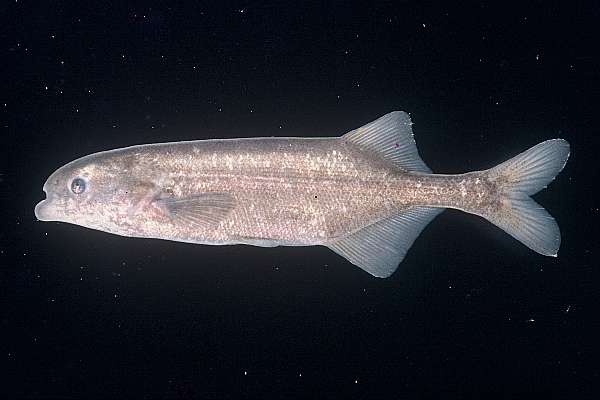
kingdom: Animalia
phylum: Chordata
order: Osteoglossiformes
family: Mormyridae
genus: Marcusenius
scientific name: Marcusenius pongolensis
